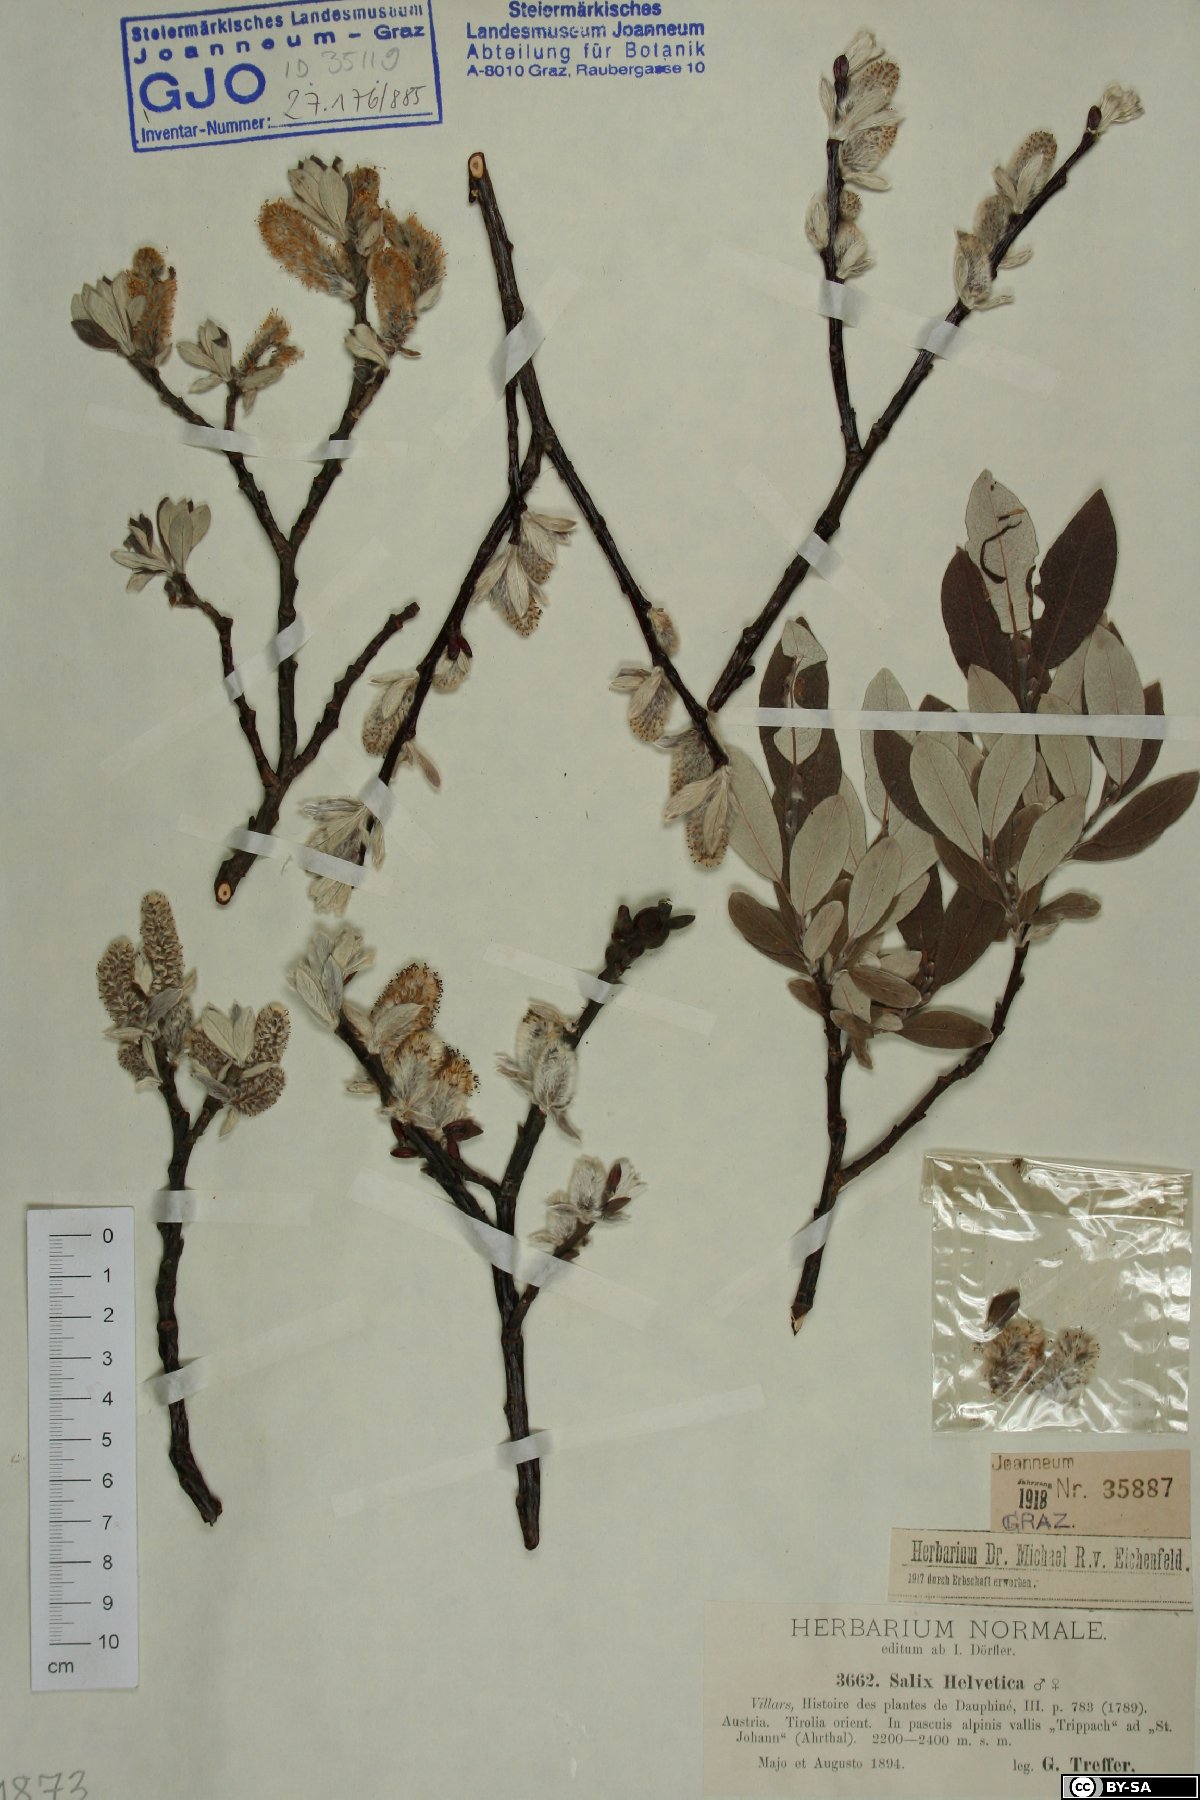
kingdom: Plantae
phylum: Tracheophyta
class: Magnoliopsida
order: Malpighiales
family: Salicaceae
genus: Salix
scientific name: Salix helvetica
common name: Swiss willow
